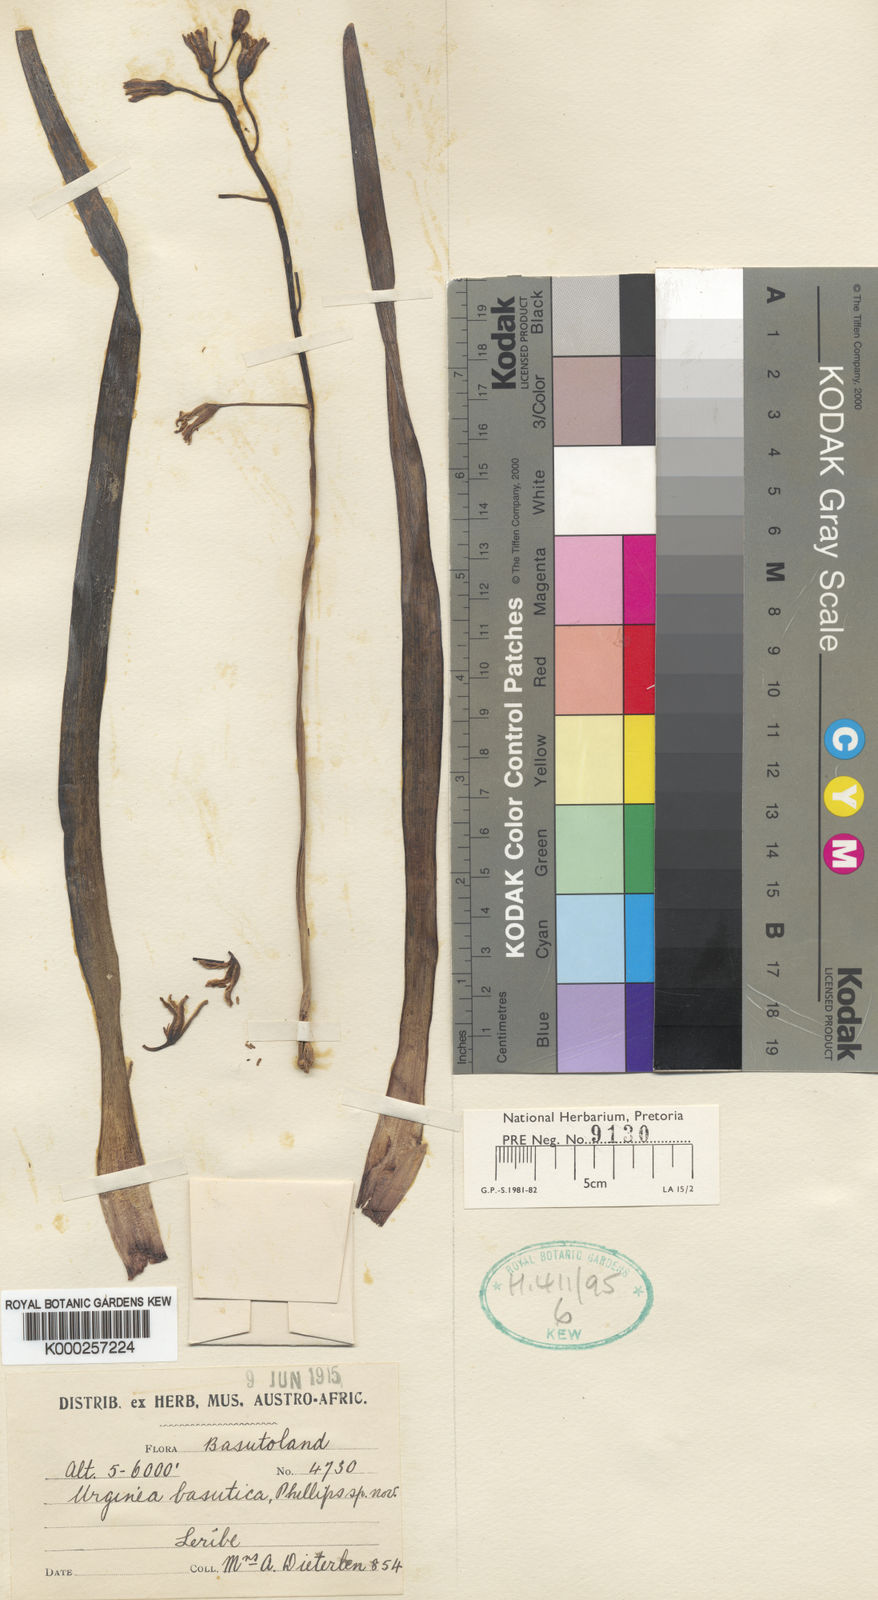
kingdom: Plantae
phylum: Tracheophyta
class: Liliopsida
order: Asparagales
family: Asparagaceae
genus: Drimia
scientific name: Drimia basutica
